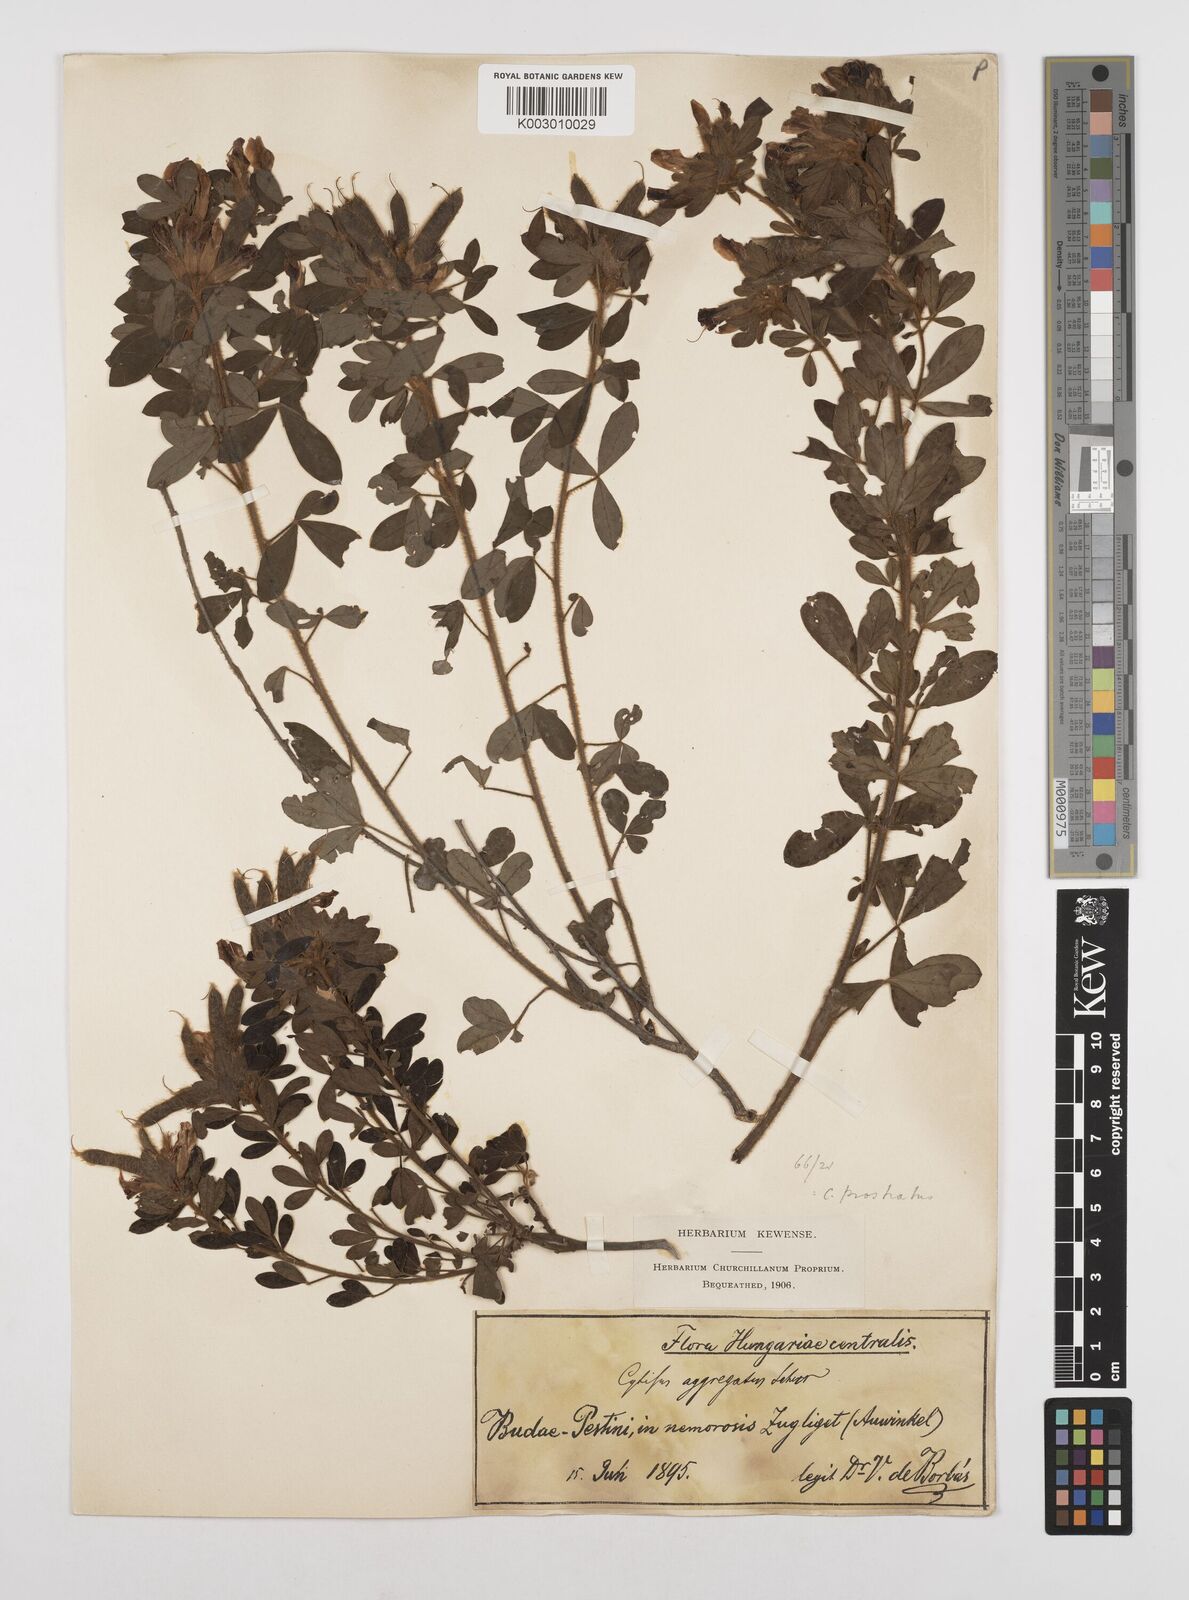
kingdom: Plantae
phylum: Tracheophyta
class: Magnoliopsida
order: Fabales
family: Fabaceae
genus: Chamaecytisus
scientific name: Chamaecytisus hirsutus
